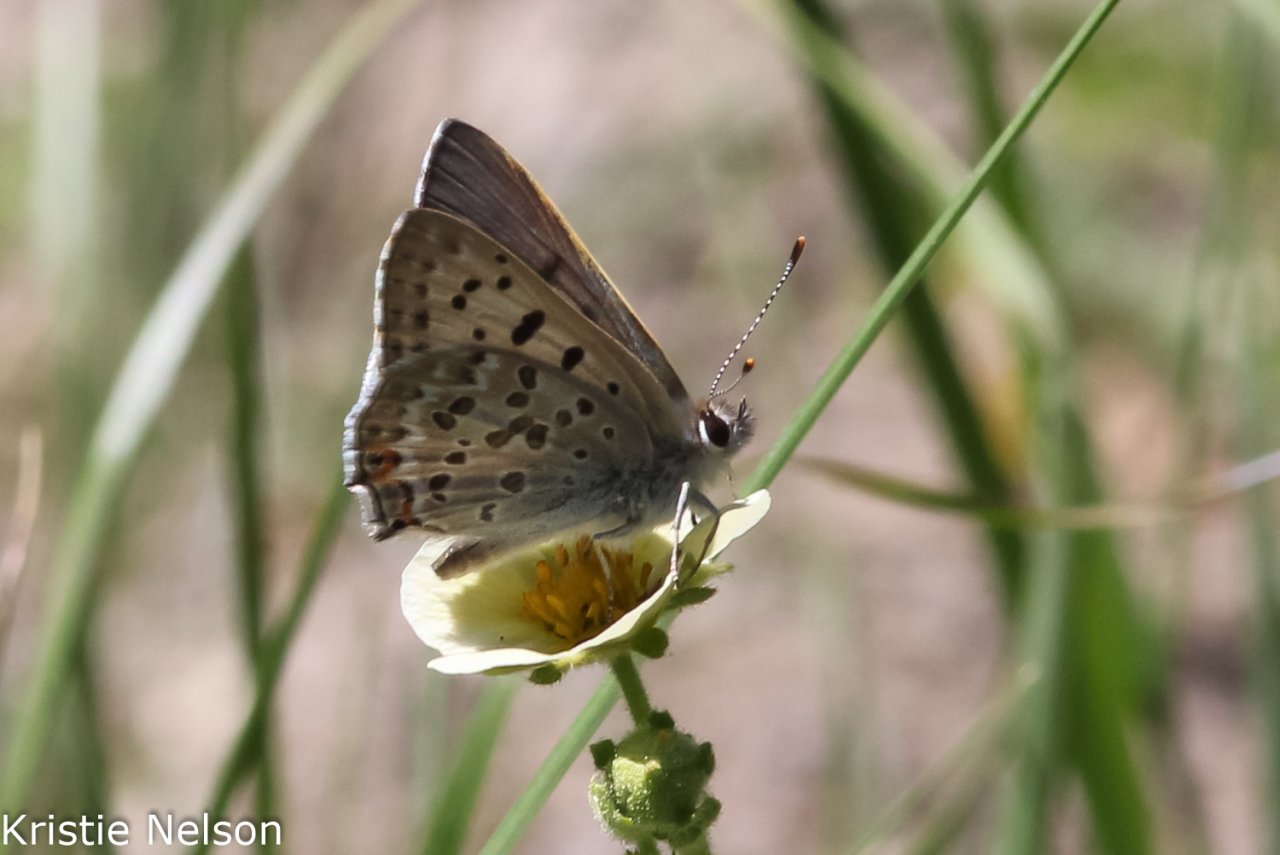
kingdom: Animalia
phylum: Arthropoda
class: Insecta
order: Lepidoptera
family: Lycaenidae
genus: Lycaena
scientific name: Lycaena editha
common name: Edith's Copper
